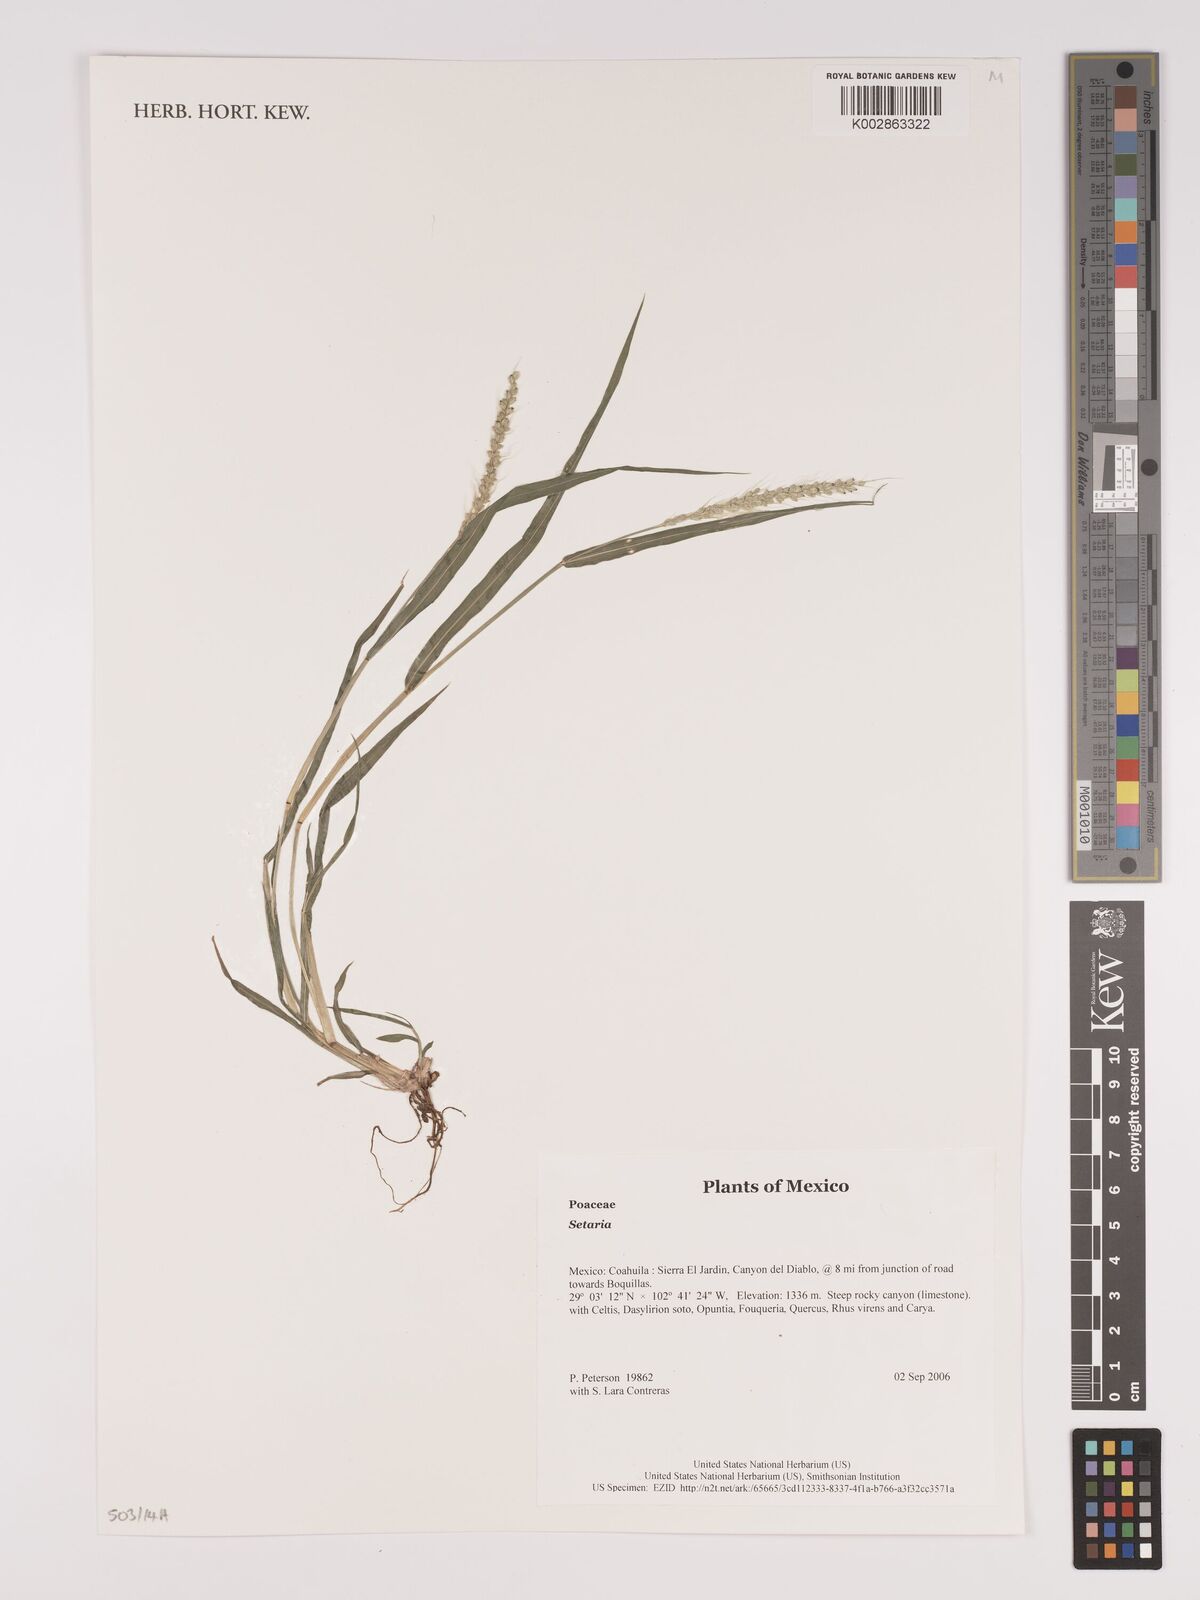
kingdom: Plantae
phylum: Tracheophyta
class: Liliopsida
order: Poales
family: Poaceae
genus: Setaria
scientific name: Setaria
